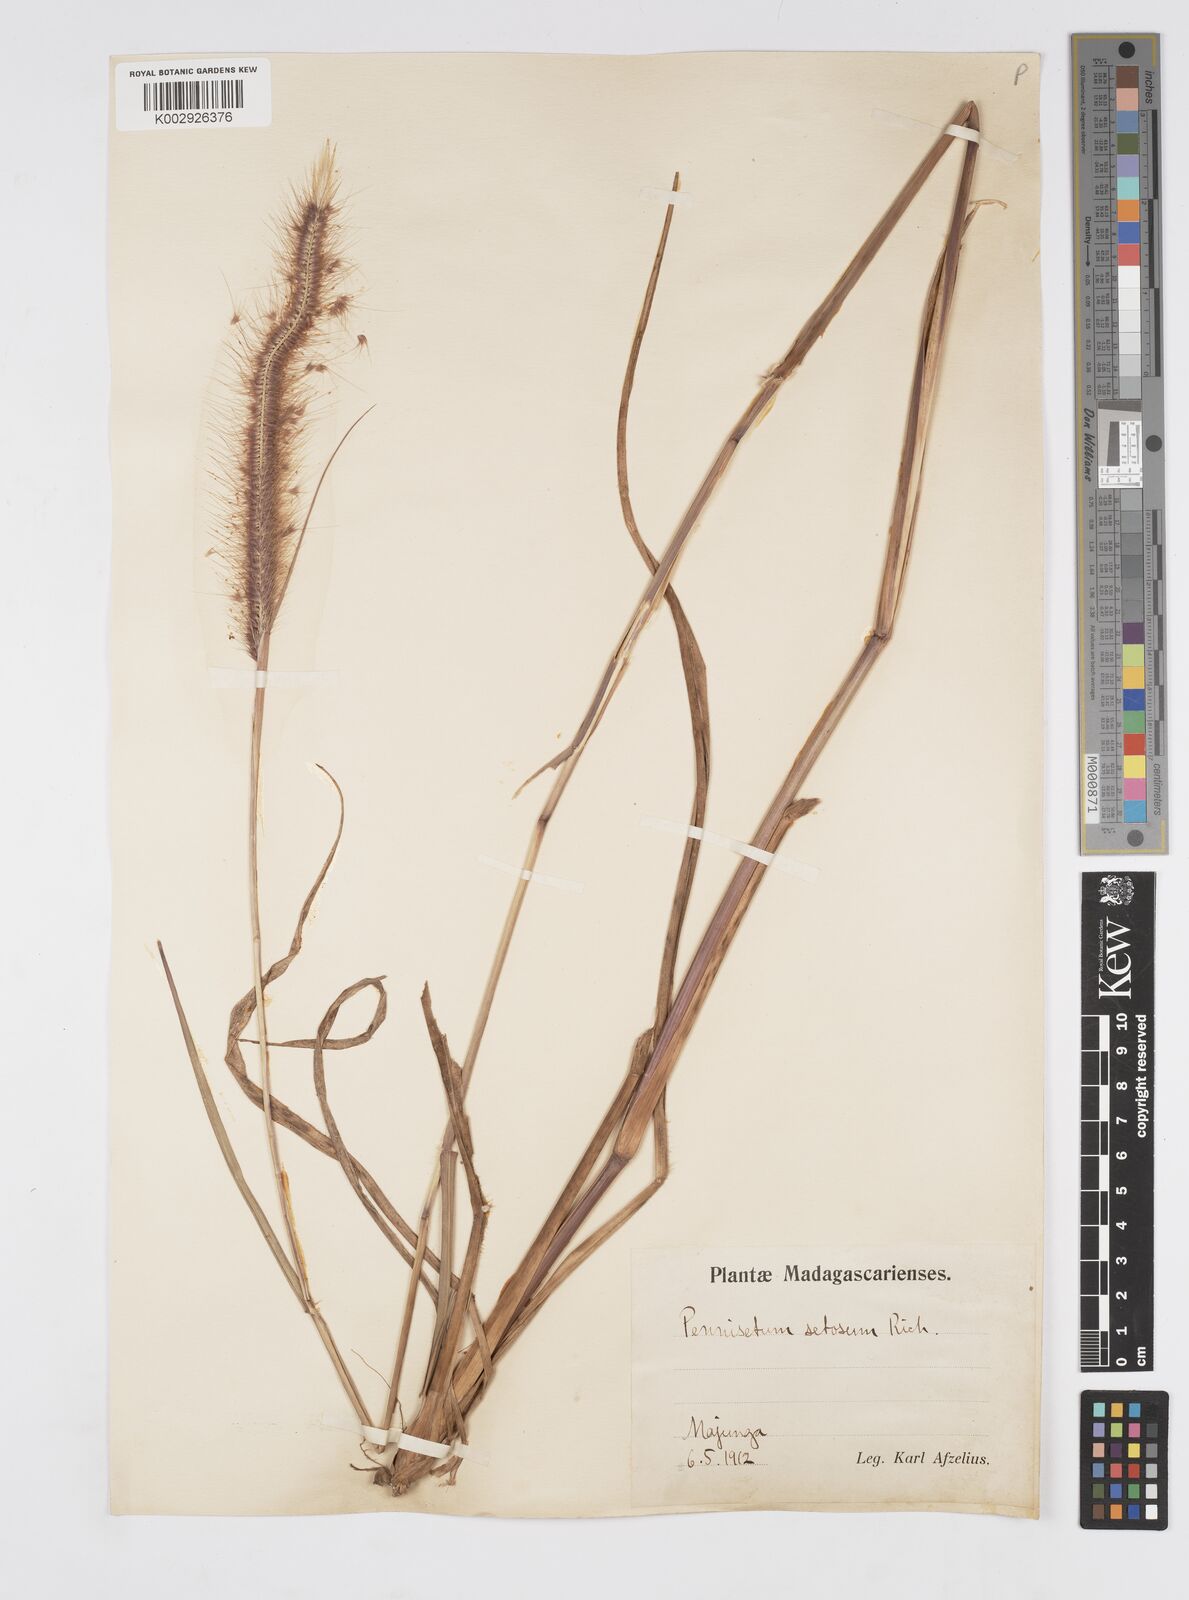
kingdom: Plantae
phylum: Tracheophyta
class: Liliopsida
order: Poales
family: Poaceae
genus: Setaria
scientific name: Setaria parviflora
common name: Knotroot bristle-grass
